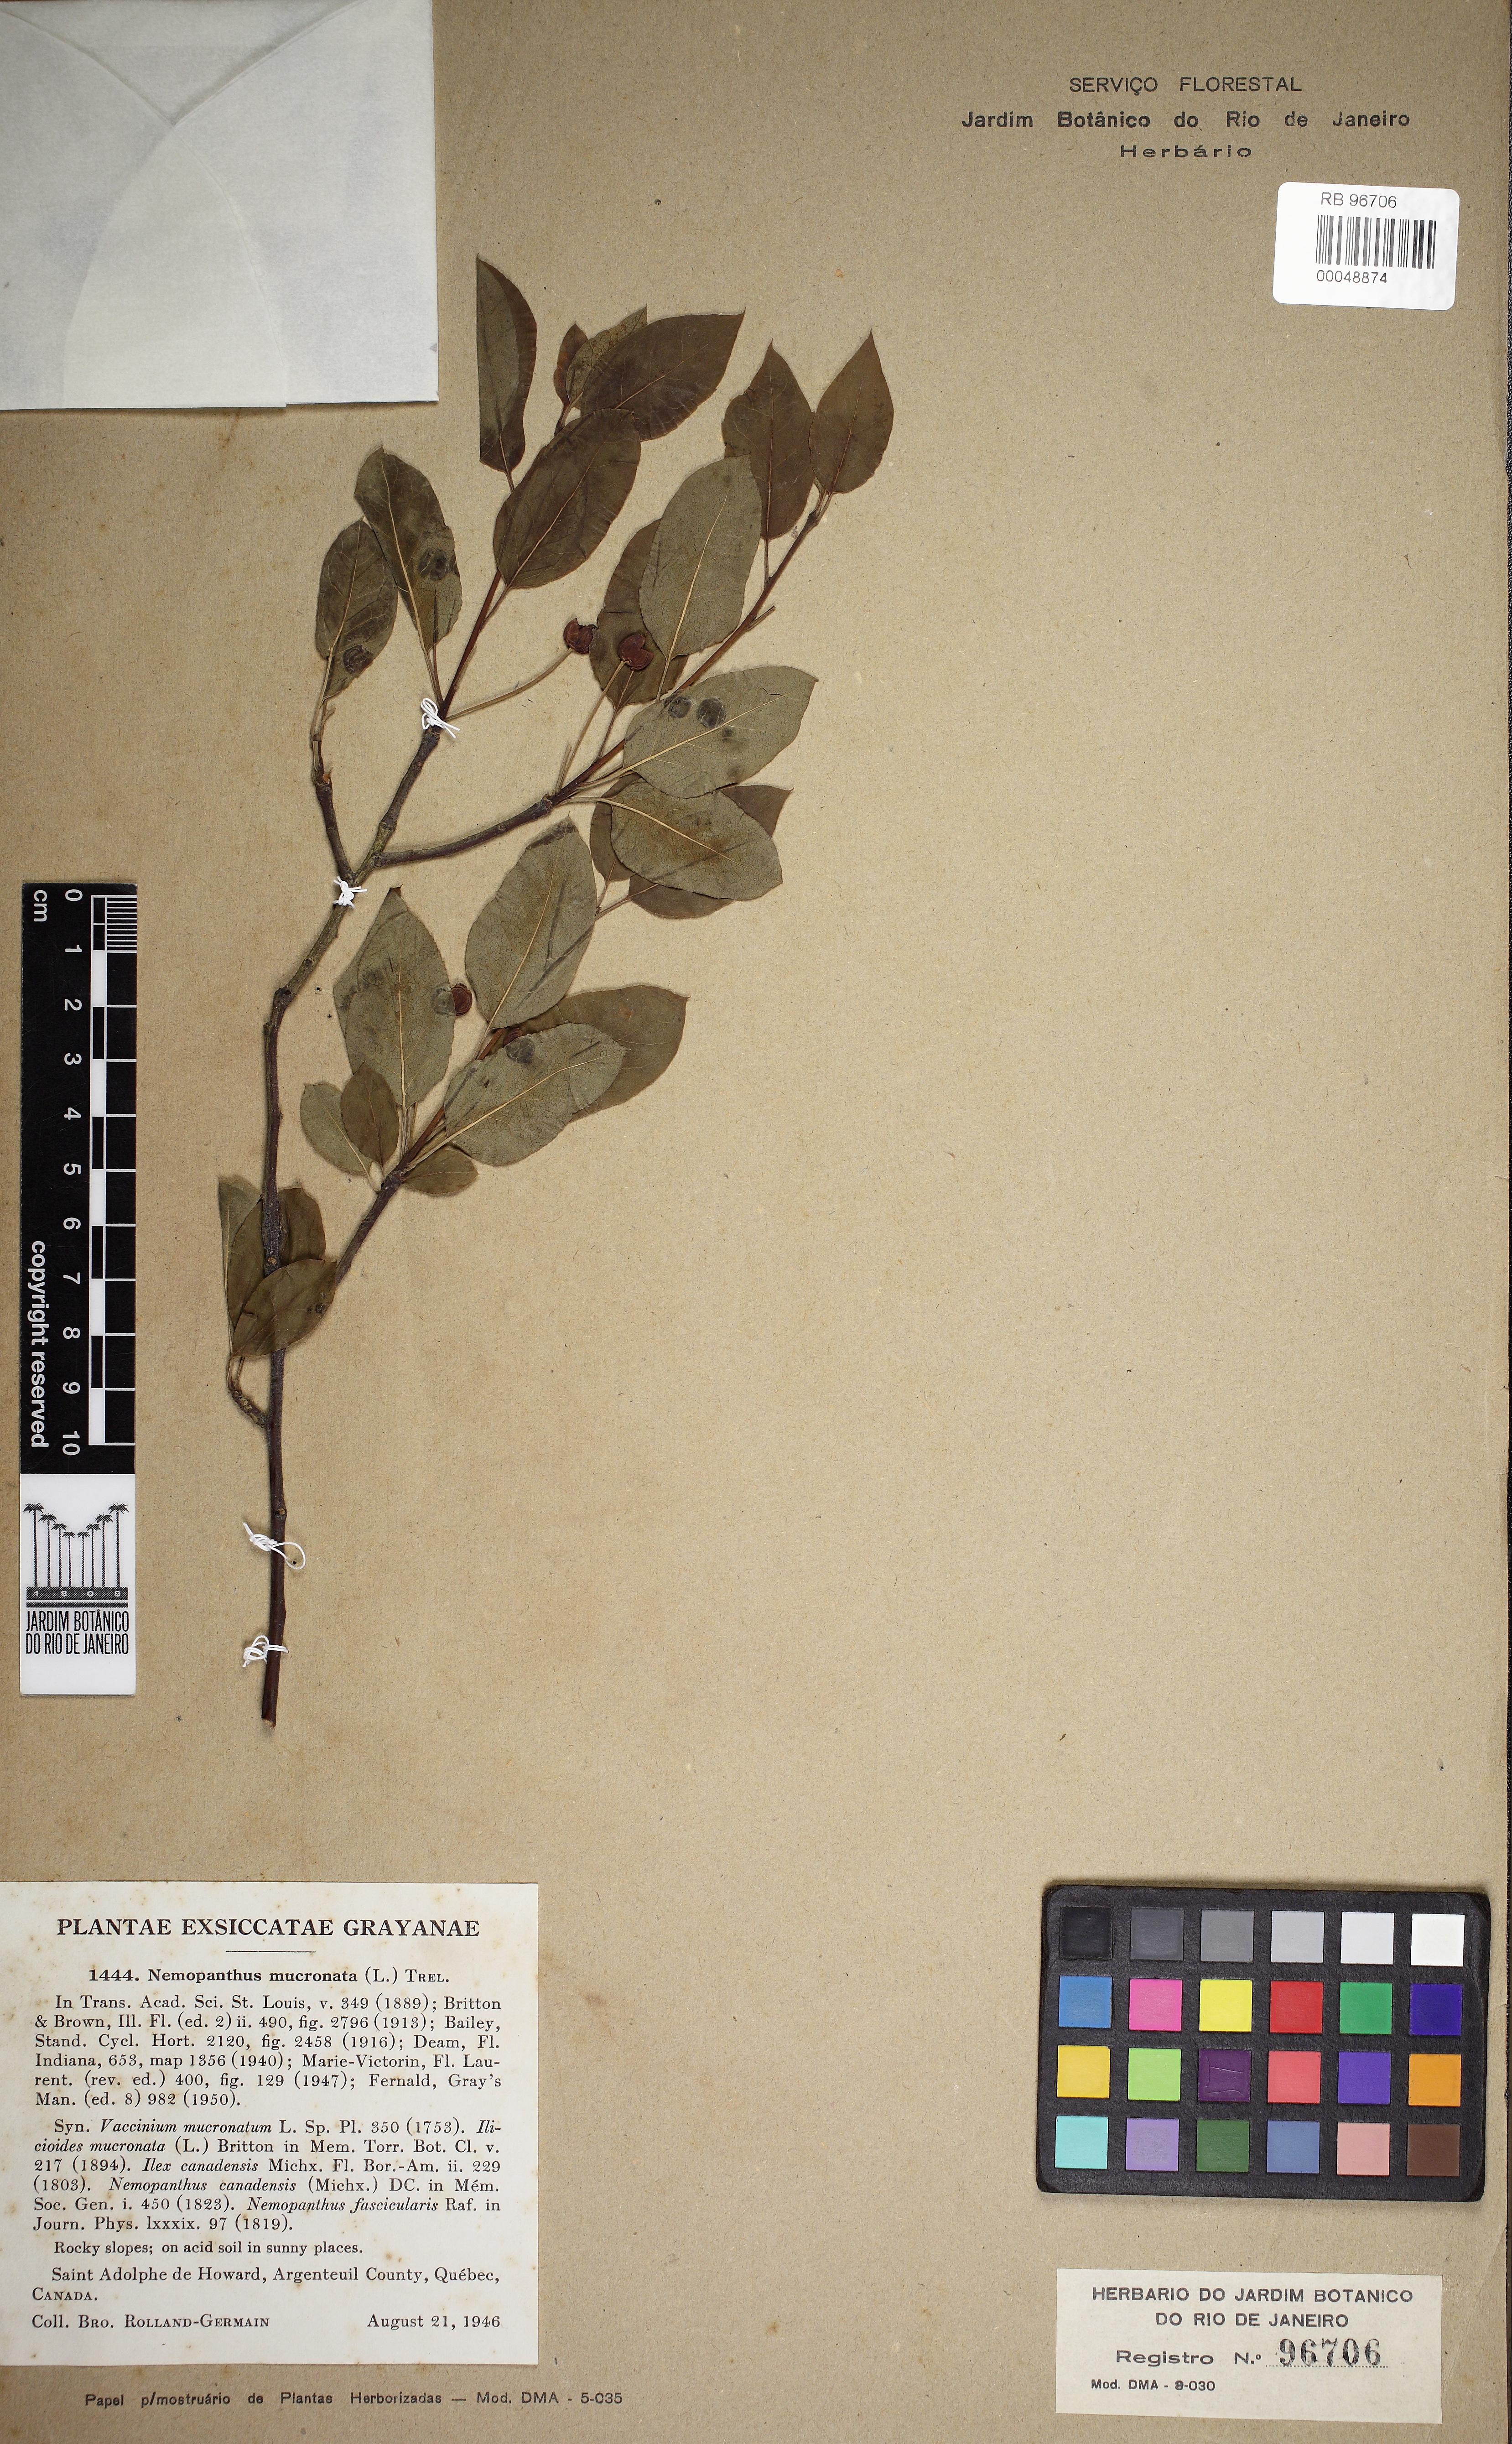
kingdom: Plantae
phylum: Tracheophyta
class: Magnoliopsida
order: Aquifoliales
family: Aquifoliaceae
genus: Ilex
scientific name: Ilex mucronata
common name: Catberry
